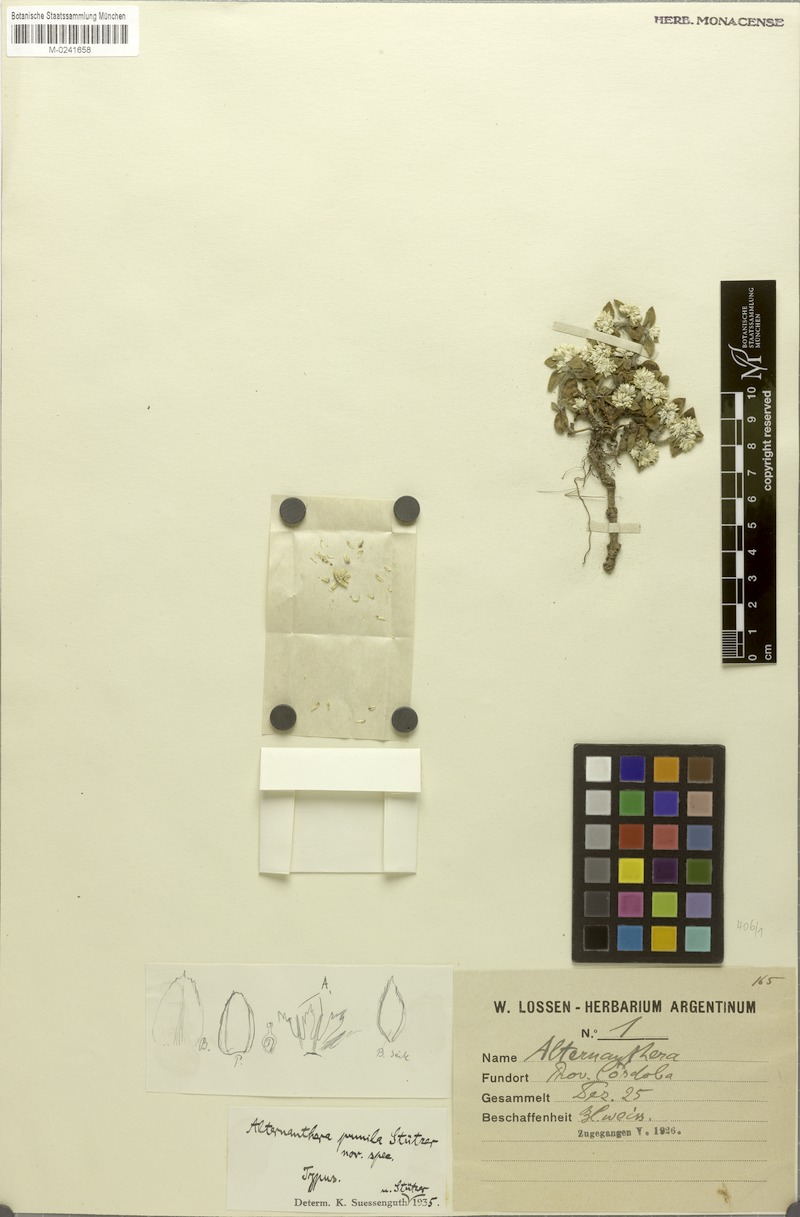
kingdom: Plantae
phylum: Tracheophyta
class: Magnoliopsida
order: Caryophyllales
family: Amaranthaceae
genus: Alternanthera
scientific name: Alternanthera pumila
